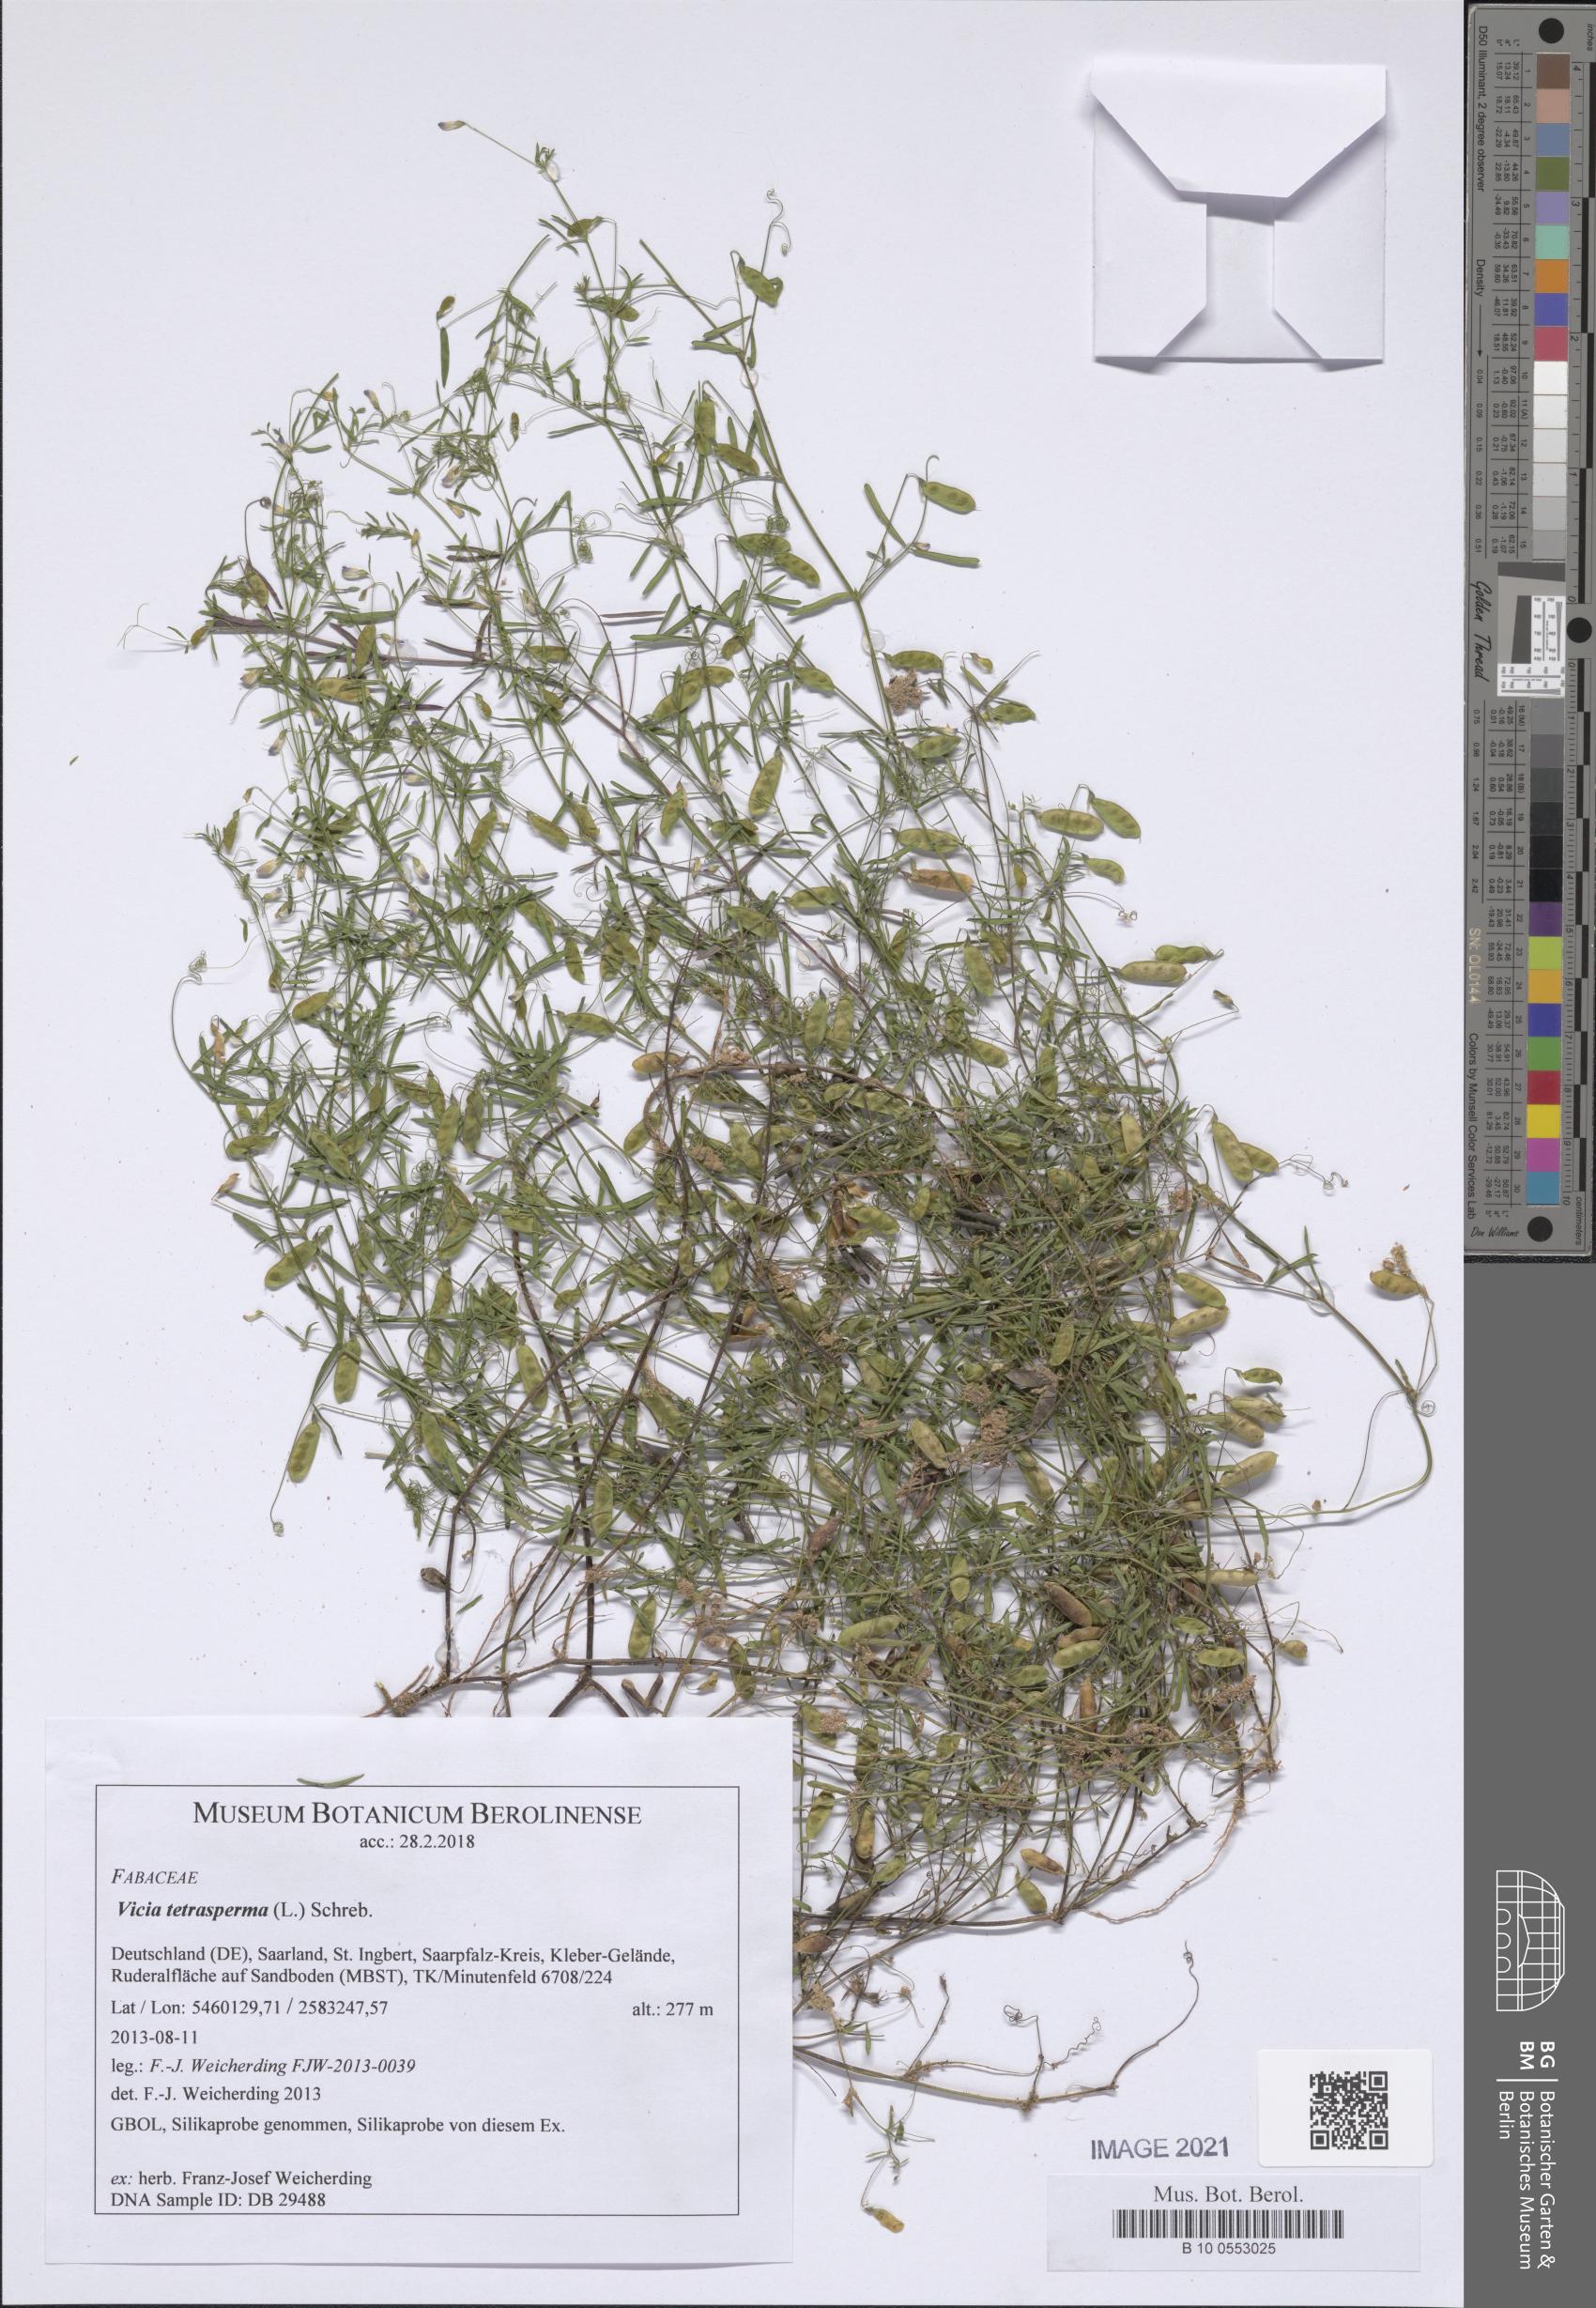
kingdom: Plantae
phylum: Tracheophyta
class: Magnoliopsida
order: Fabales
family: Fabaceae
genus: Vicia
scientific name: Vicia tetrasperma
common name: Smooth tare
